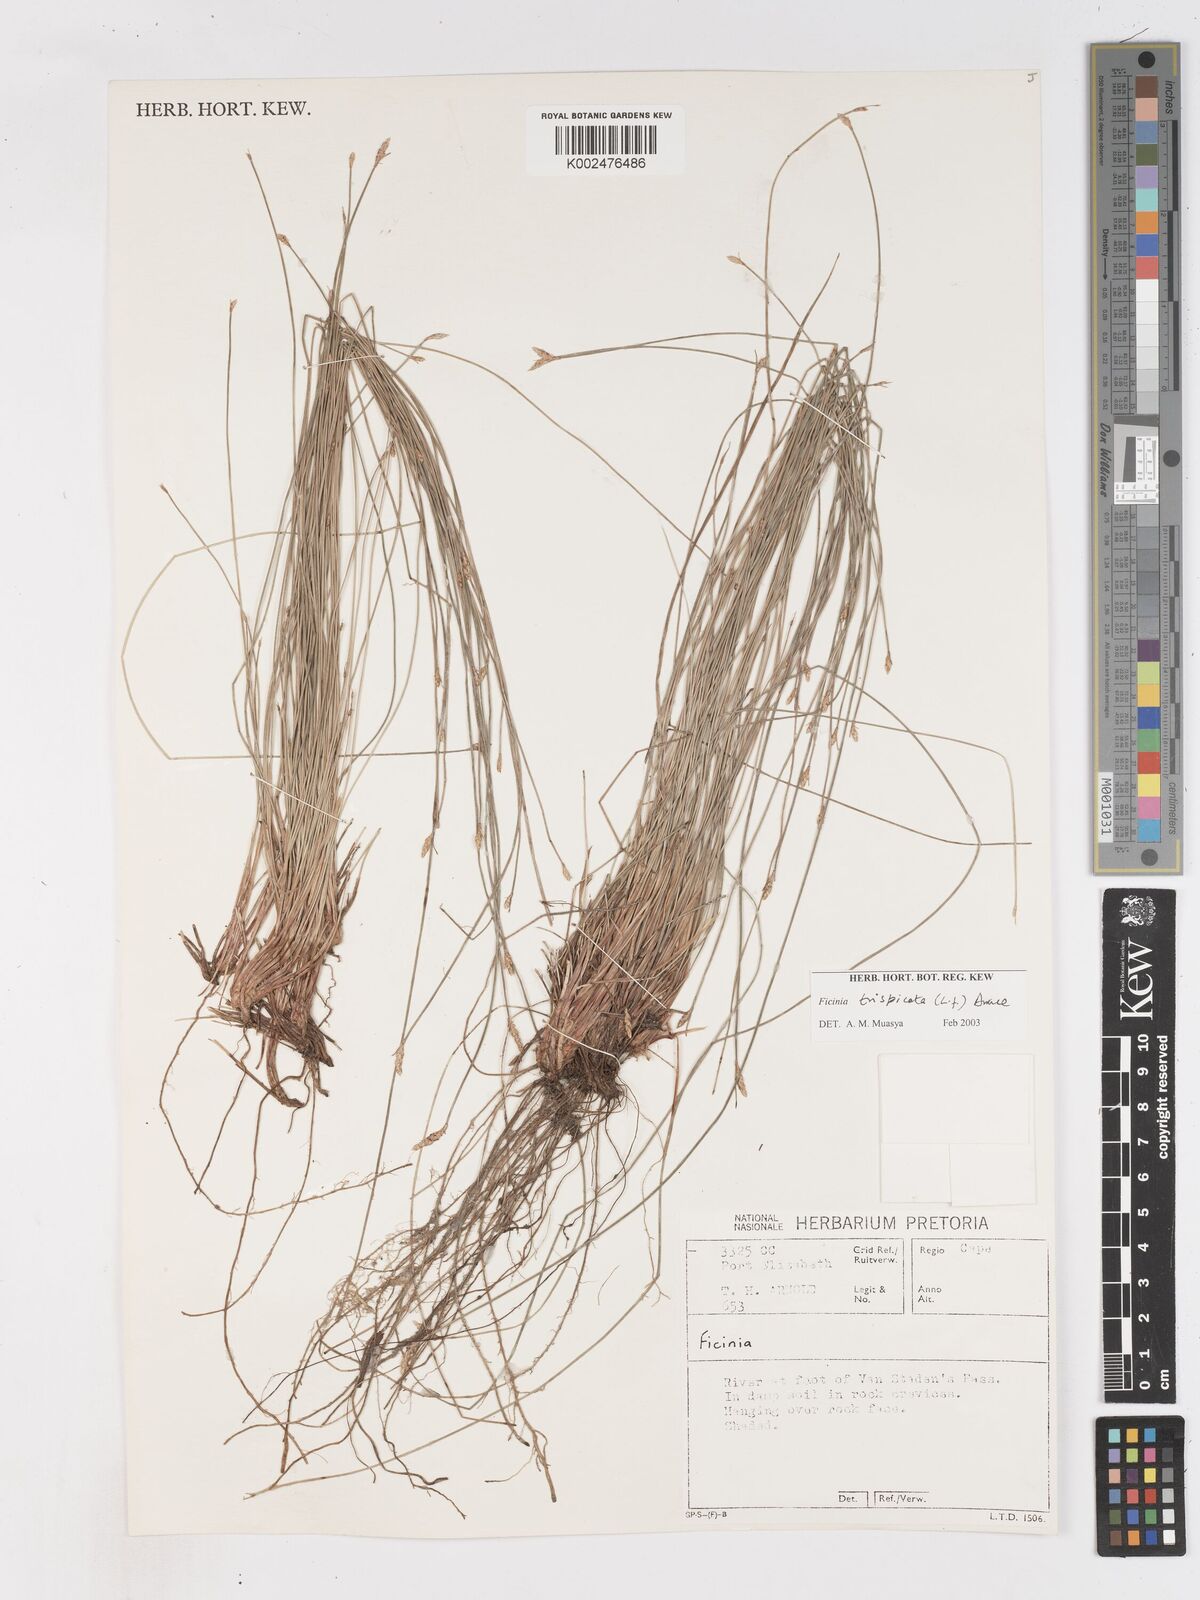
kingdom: Plantae
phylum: Tracheophyta
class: Liliopsida
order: Poales
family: Cyperaceae
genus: Ficinia
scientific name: Ficinia sylvatica
